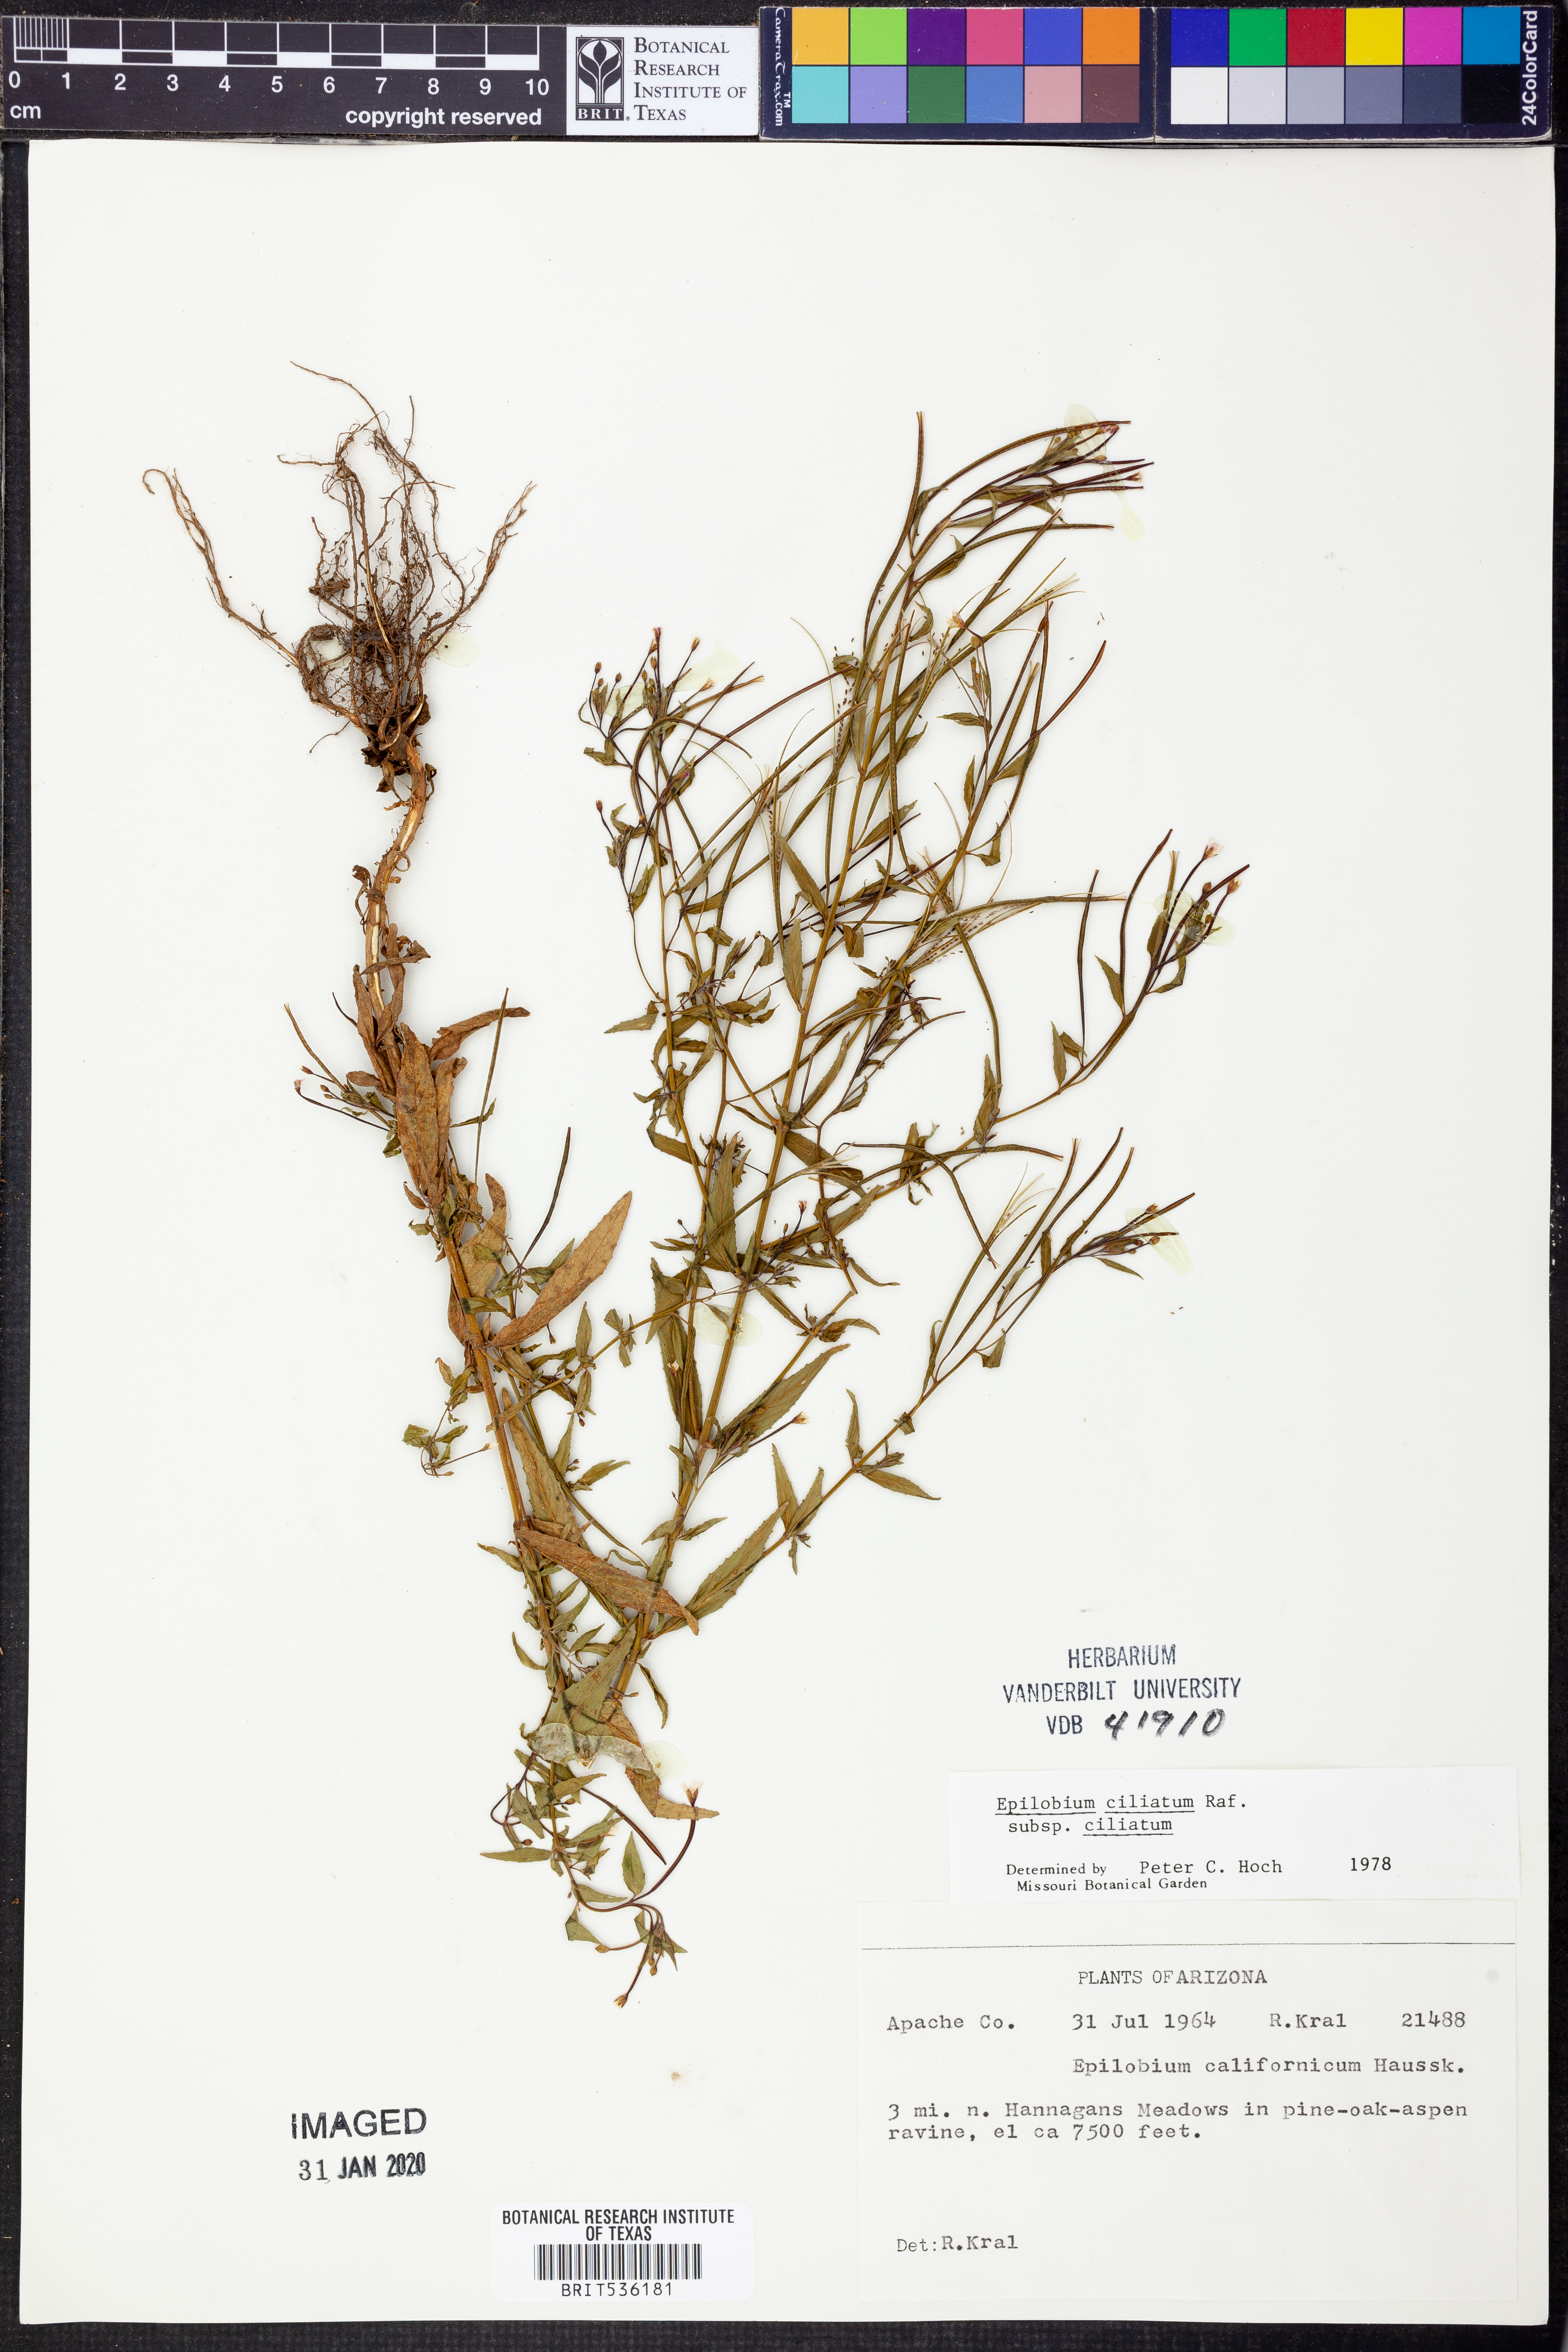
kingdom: Plantae
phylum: Tracheophyta
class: Magnoliopsida
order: Myrtales
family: Onagraceae
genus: Epilobium
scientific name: Epilobium ciliatum
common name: American willowherb
